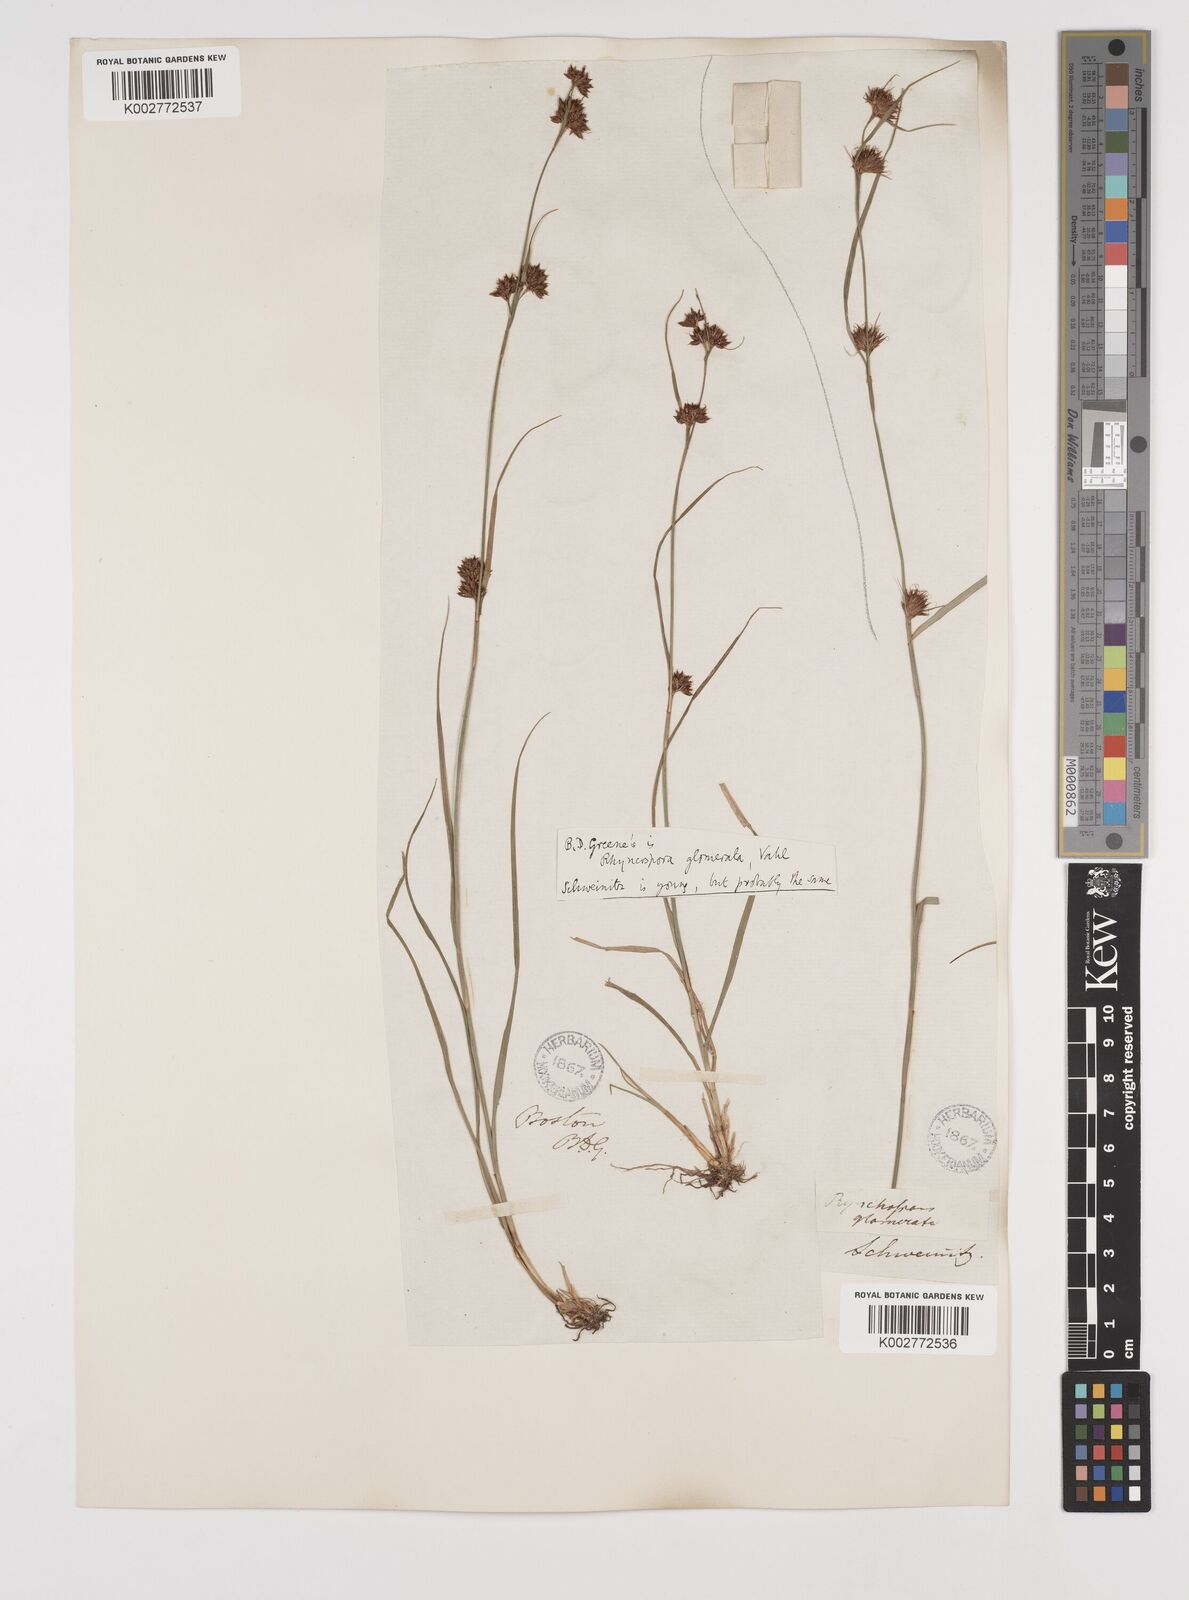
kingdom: Plantae
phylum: Tracheophyta
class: Liliopsida
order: Poales
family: Cyperaceae
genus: Rhynchospora
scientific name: Rhynchospora glomerata
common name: Cluster beak sedge
